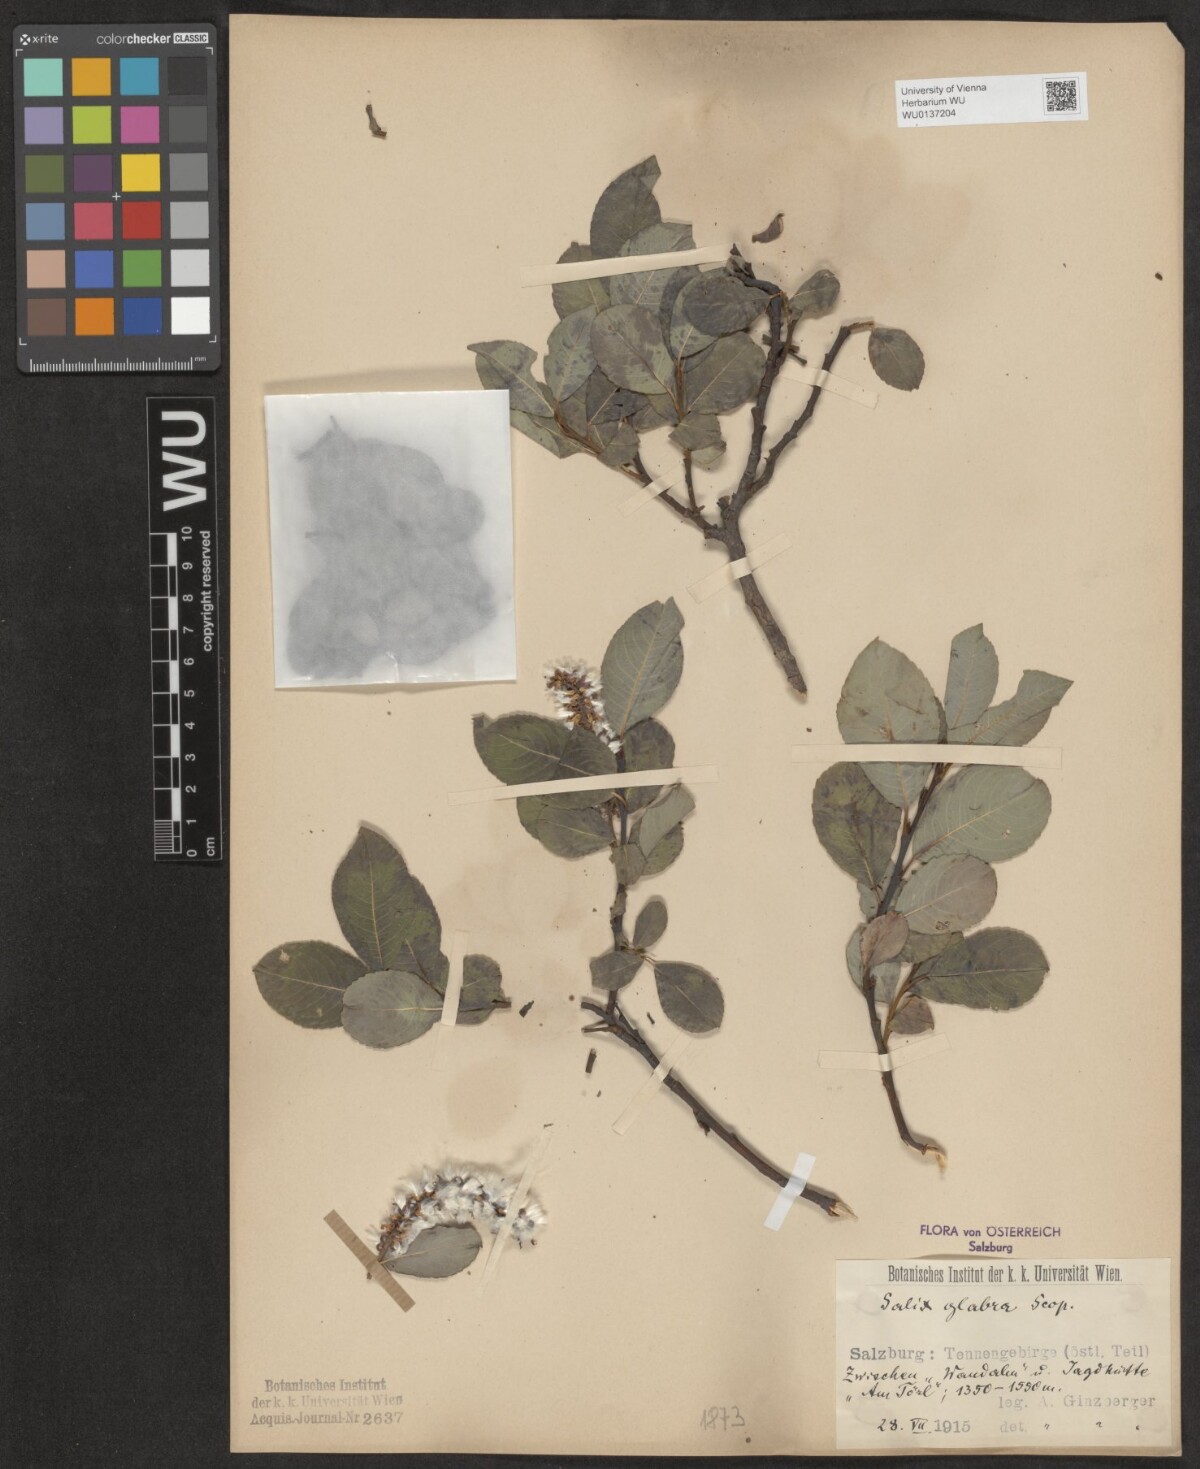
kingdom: Plantae
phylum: Tracheophyta
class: Magnoliopsida
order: Malpighiales
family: Salicaceae
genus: Salix
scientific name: Salix glabra
